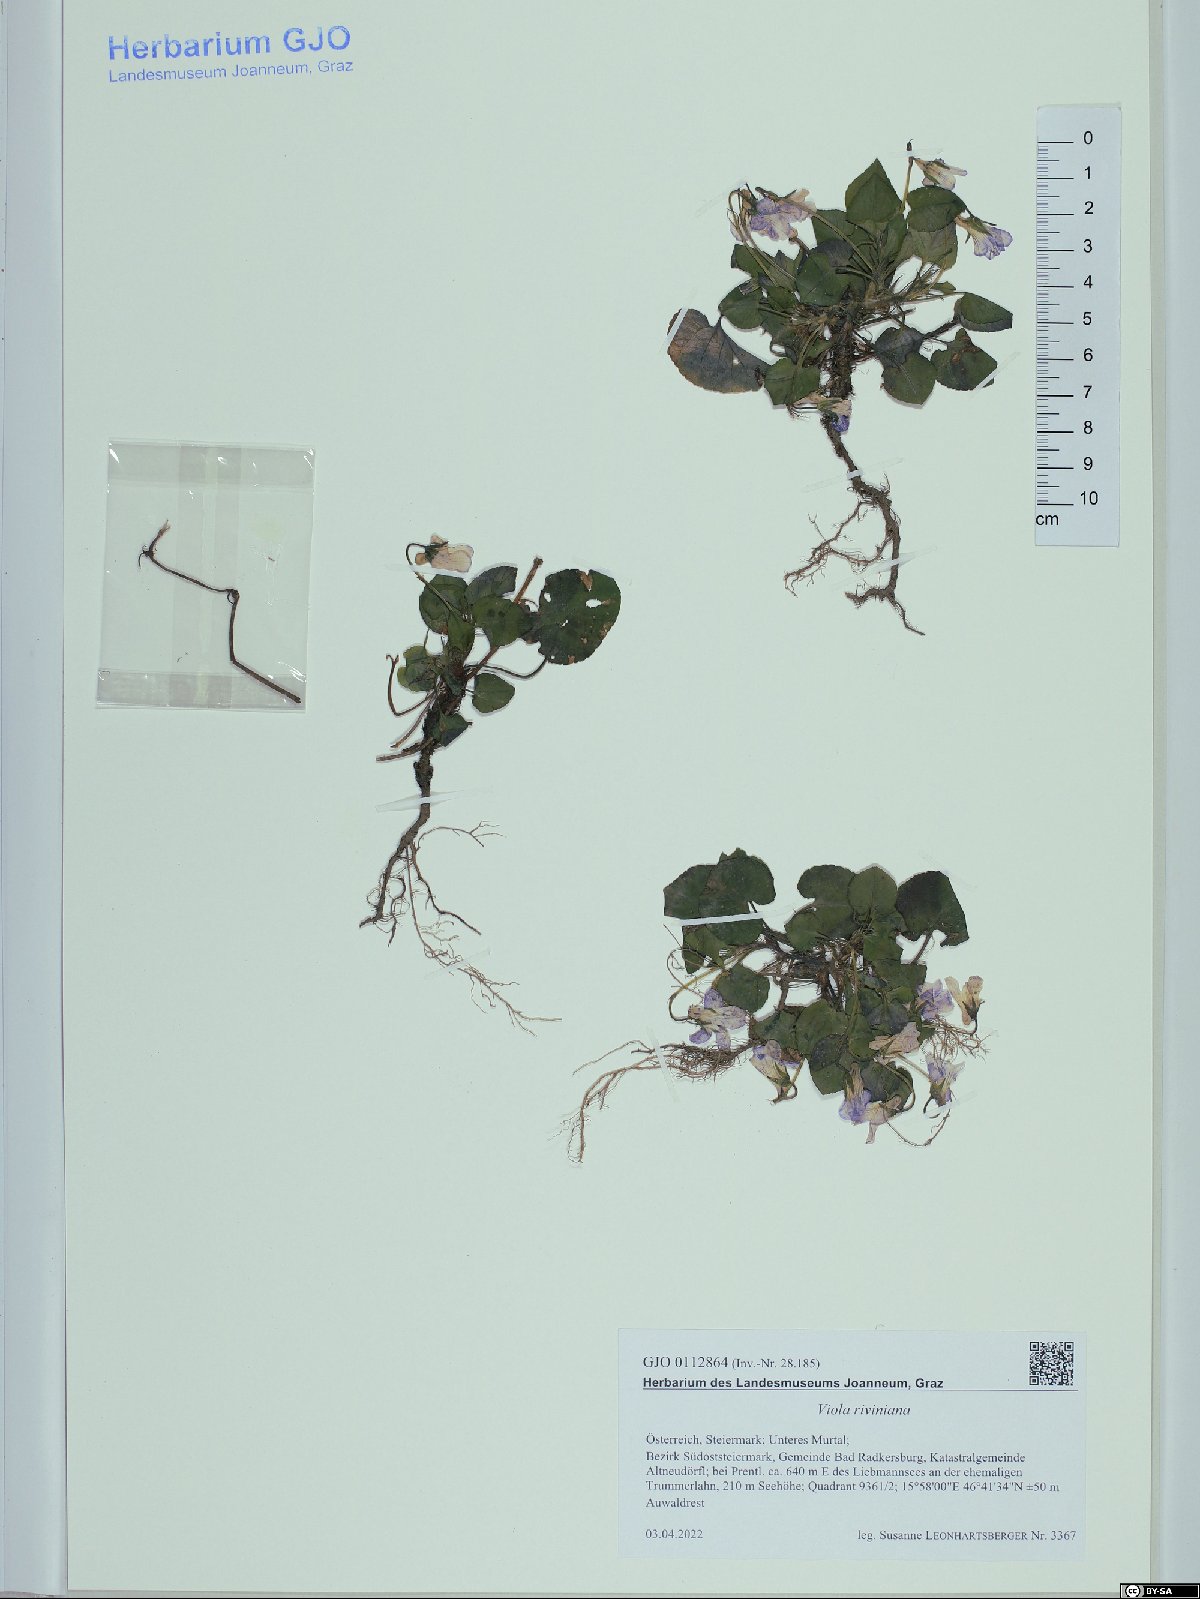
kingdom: Plantae
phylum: Tracheophyta
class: Magnoliopsida
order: Malpighiales
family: Violaceae
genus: Viola
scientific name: Viola riviniana
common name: Common dog-violet
